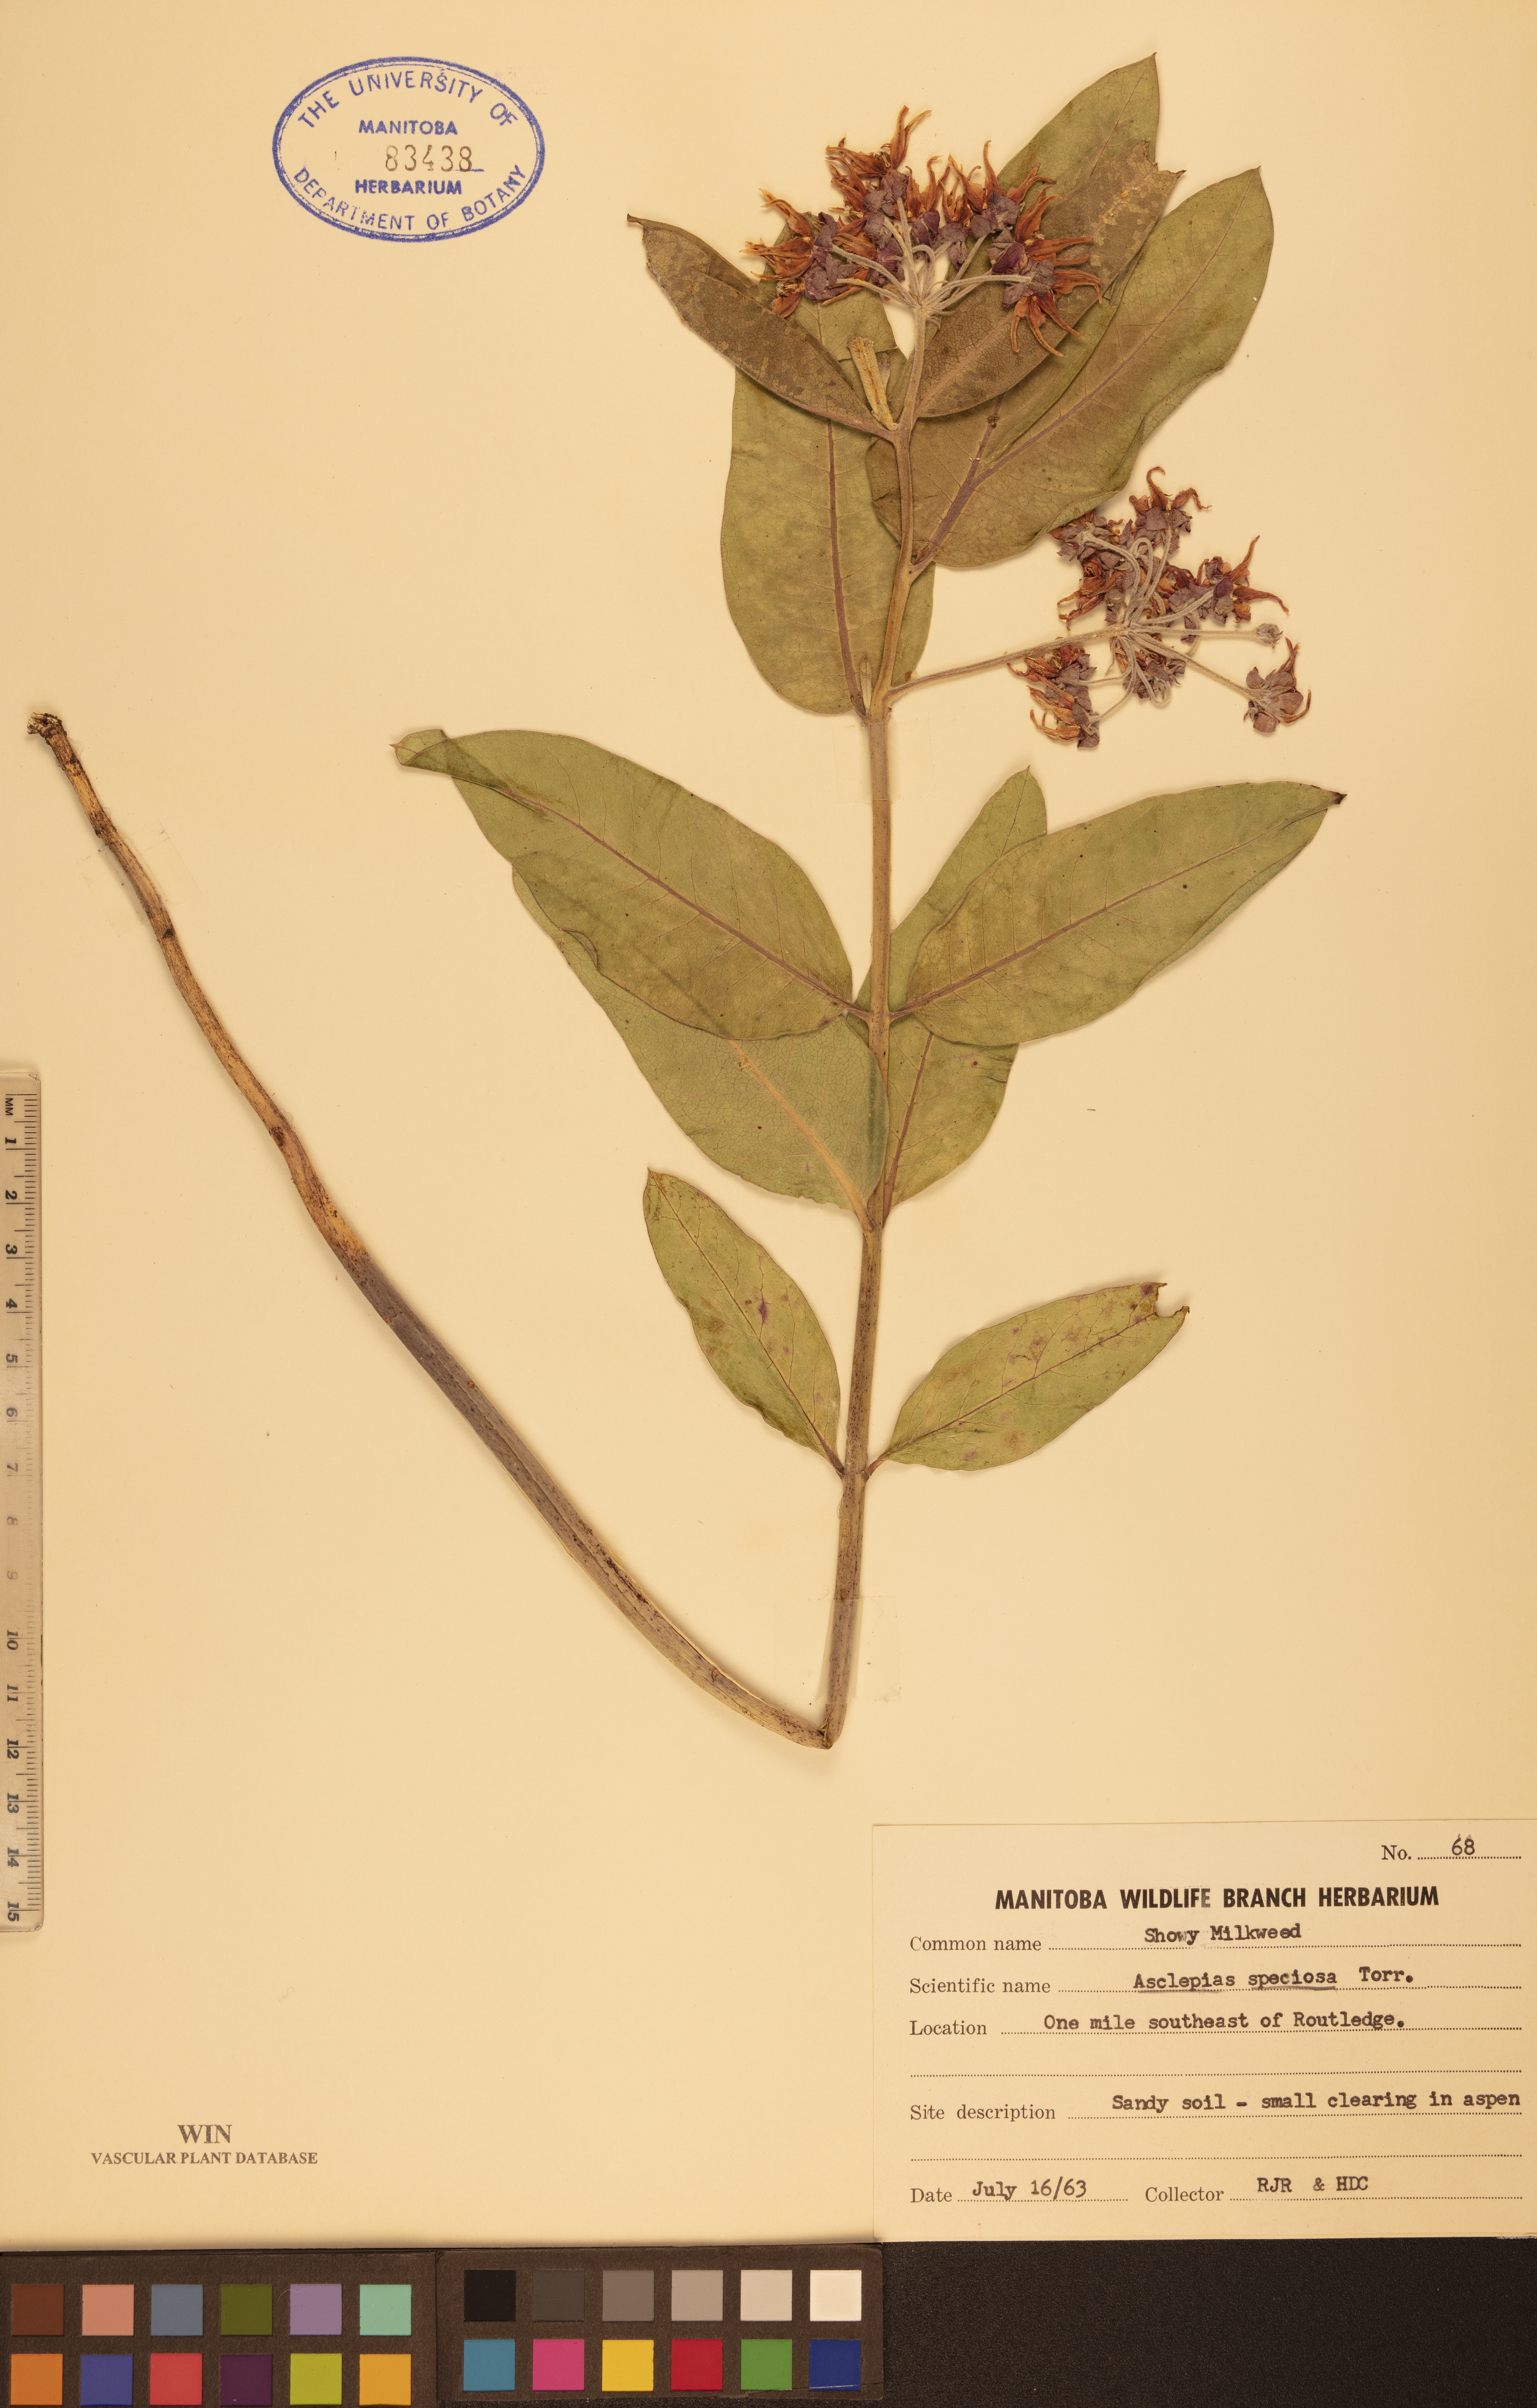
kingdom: Plantae
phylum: Tracheophyta
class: Magnoliopsida
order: Gentianales
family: Apocynaceae
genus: Asclepias
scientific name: Asclepias speciosa
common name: Showy milkweed
